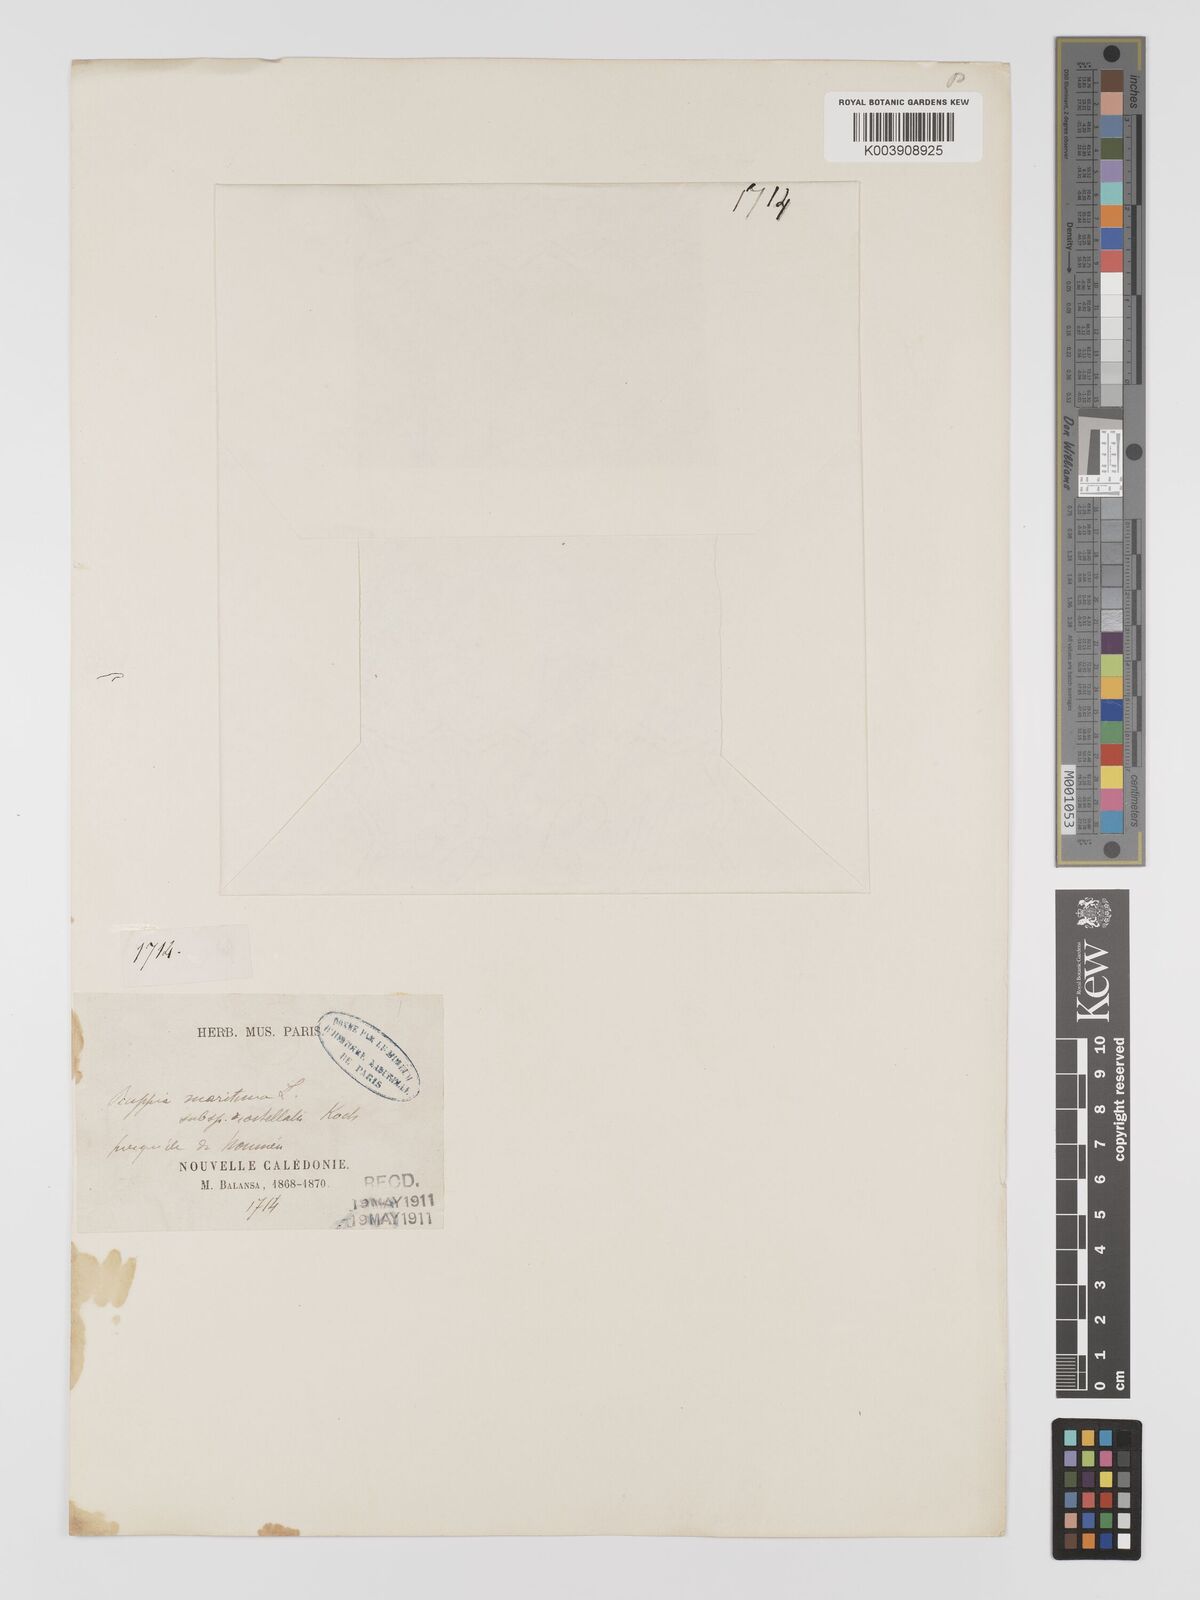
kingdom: Plantae
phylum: Tracheophyta
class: Liliopsida
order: Alismatales
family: Ruppiaceae
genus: Ruppia
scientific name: Ruppia maritima
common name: Beaked tasselweed
